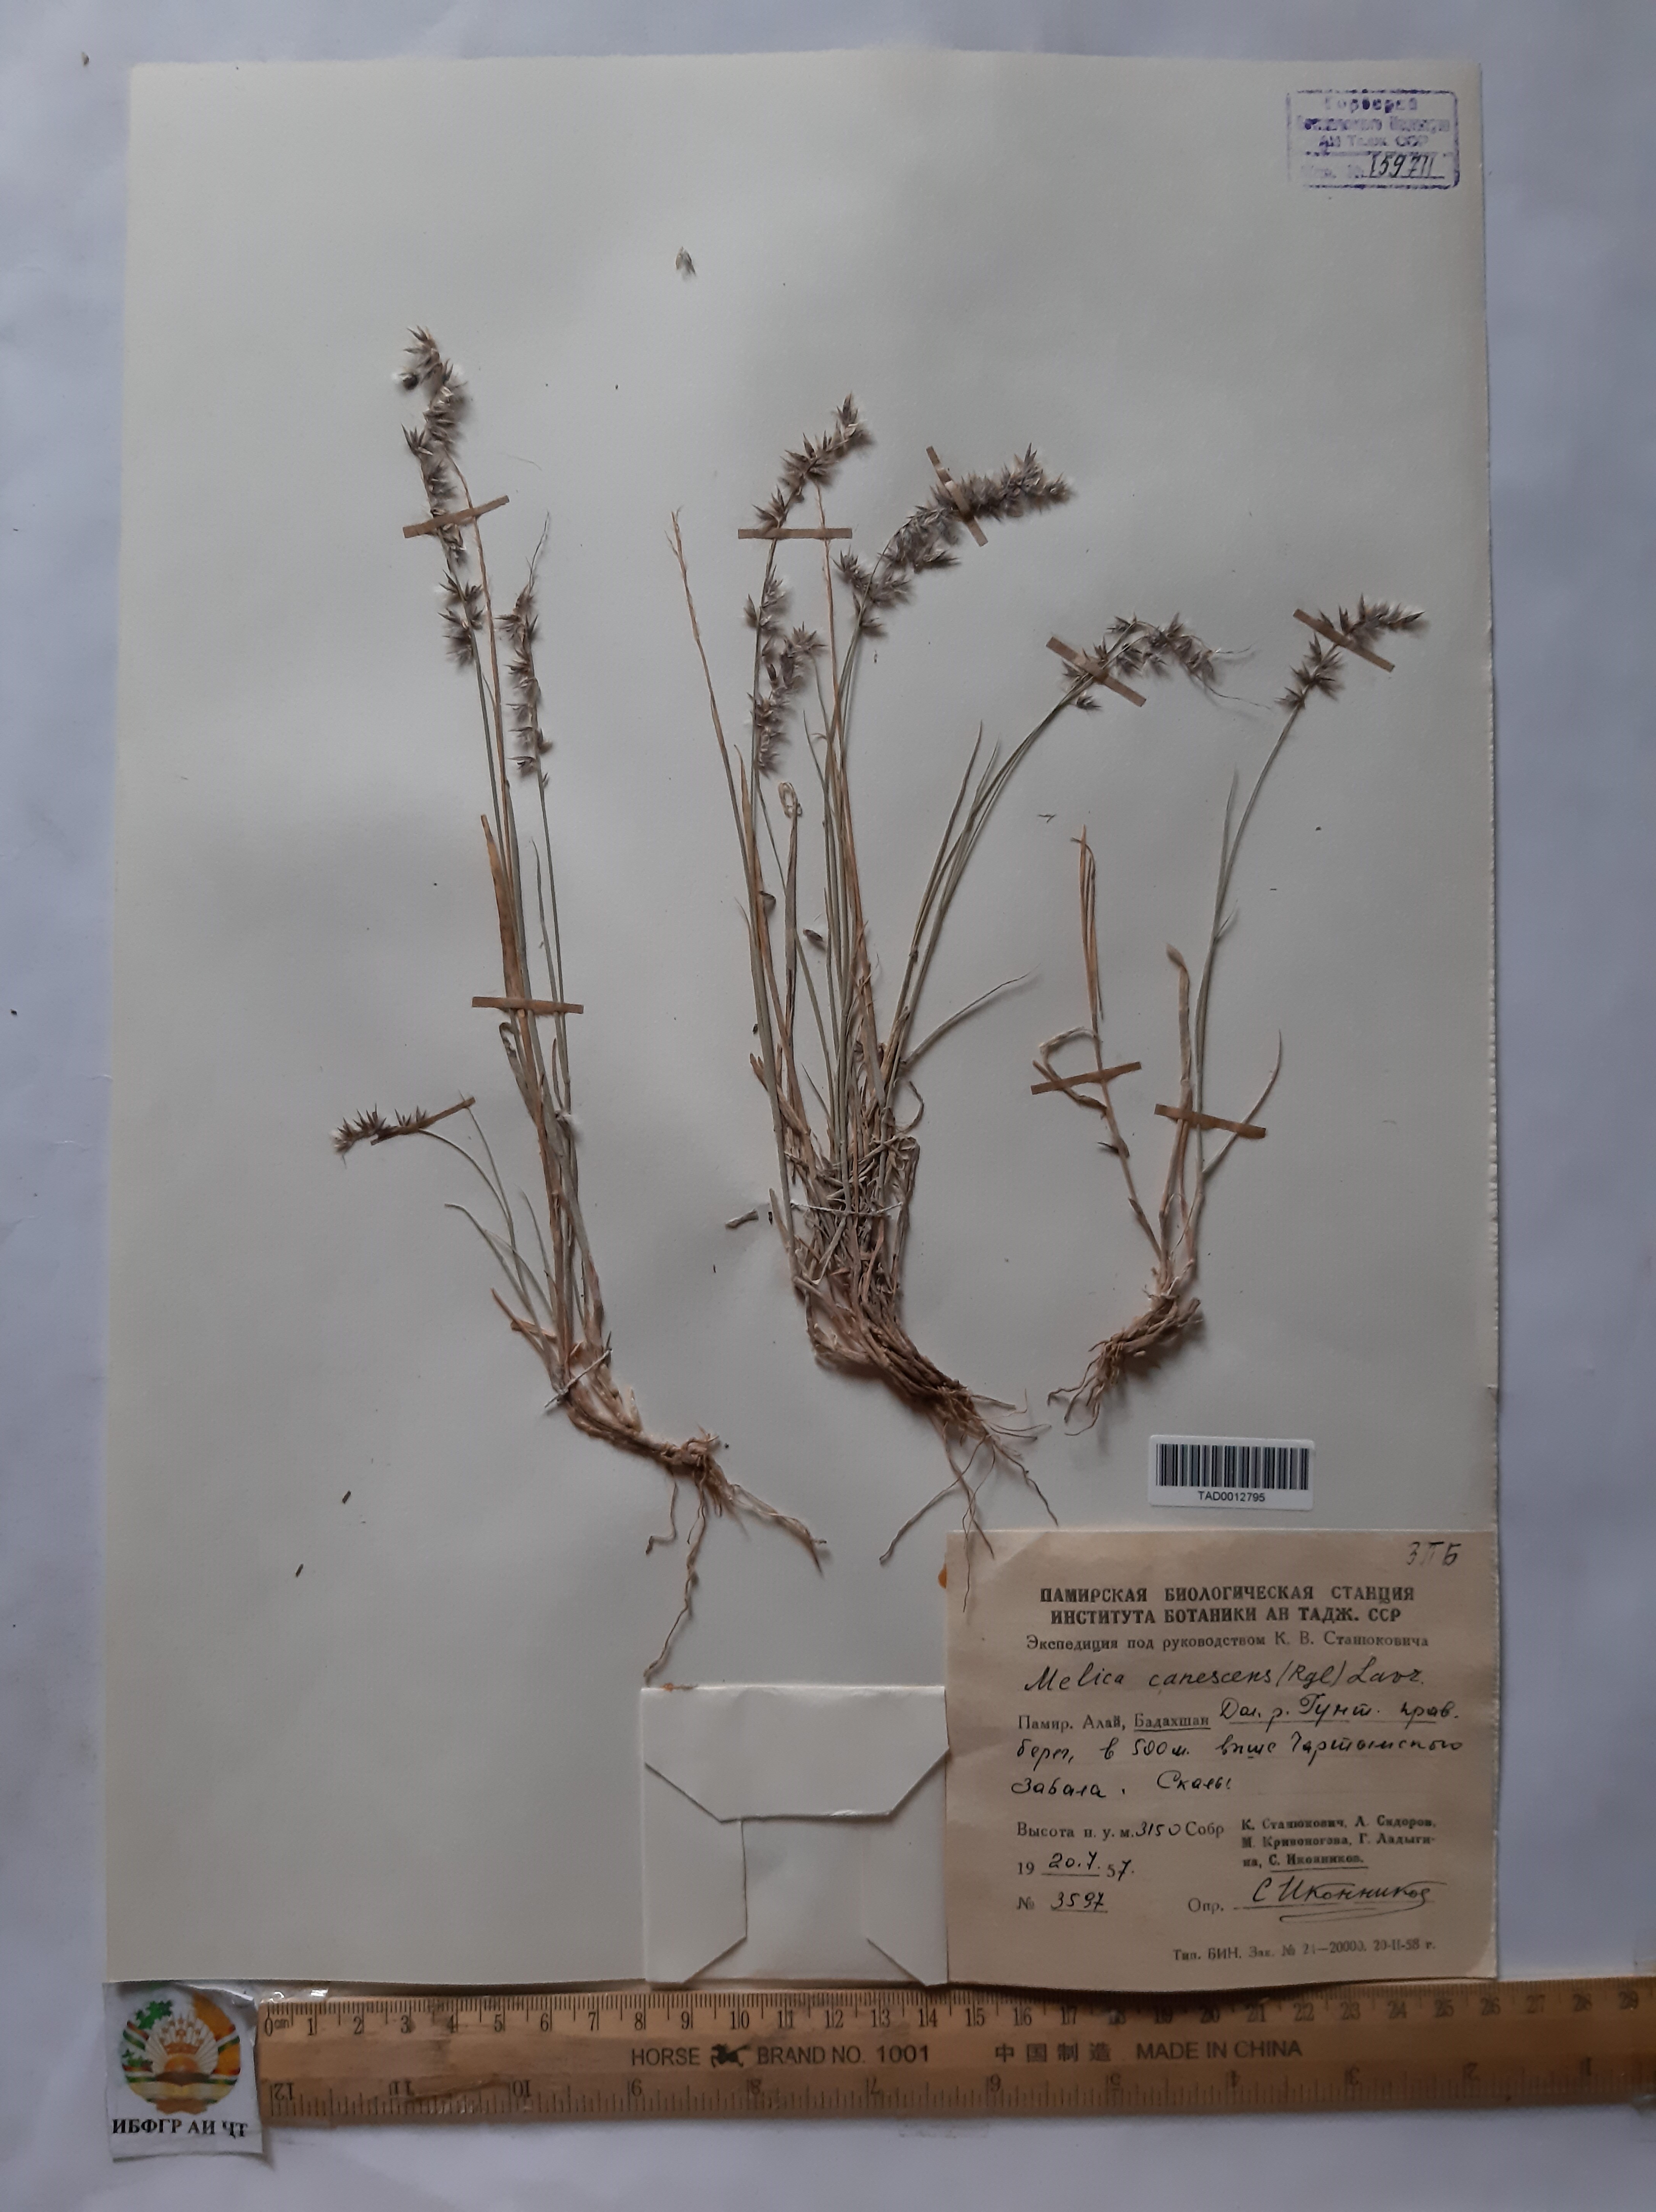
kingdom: Plantae
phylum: Tracheophyta
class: Liliopsida
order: Poales
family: Poaceae
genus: Melica
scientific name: Melica persica
